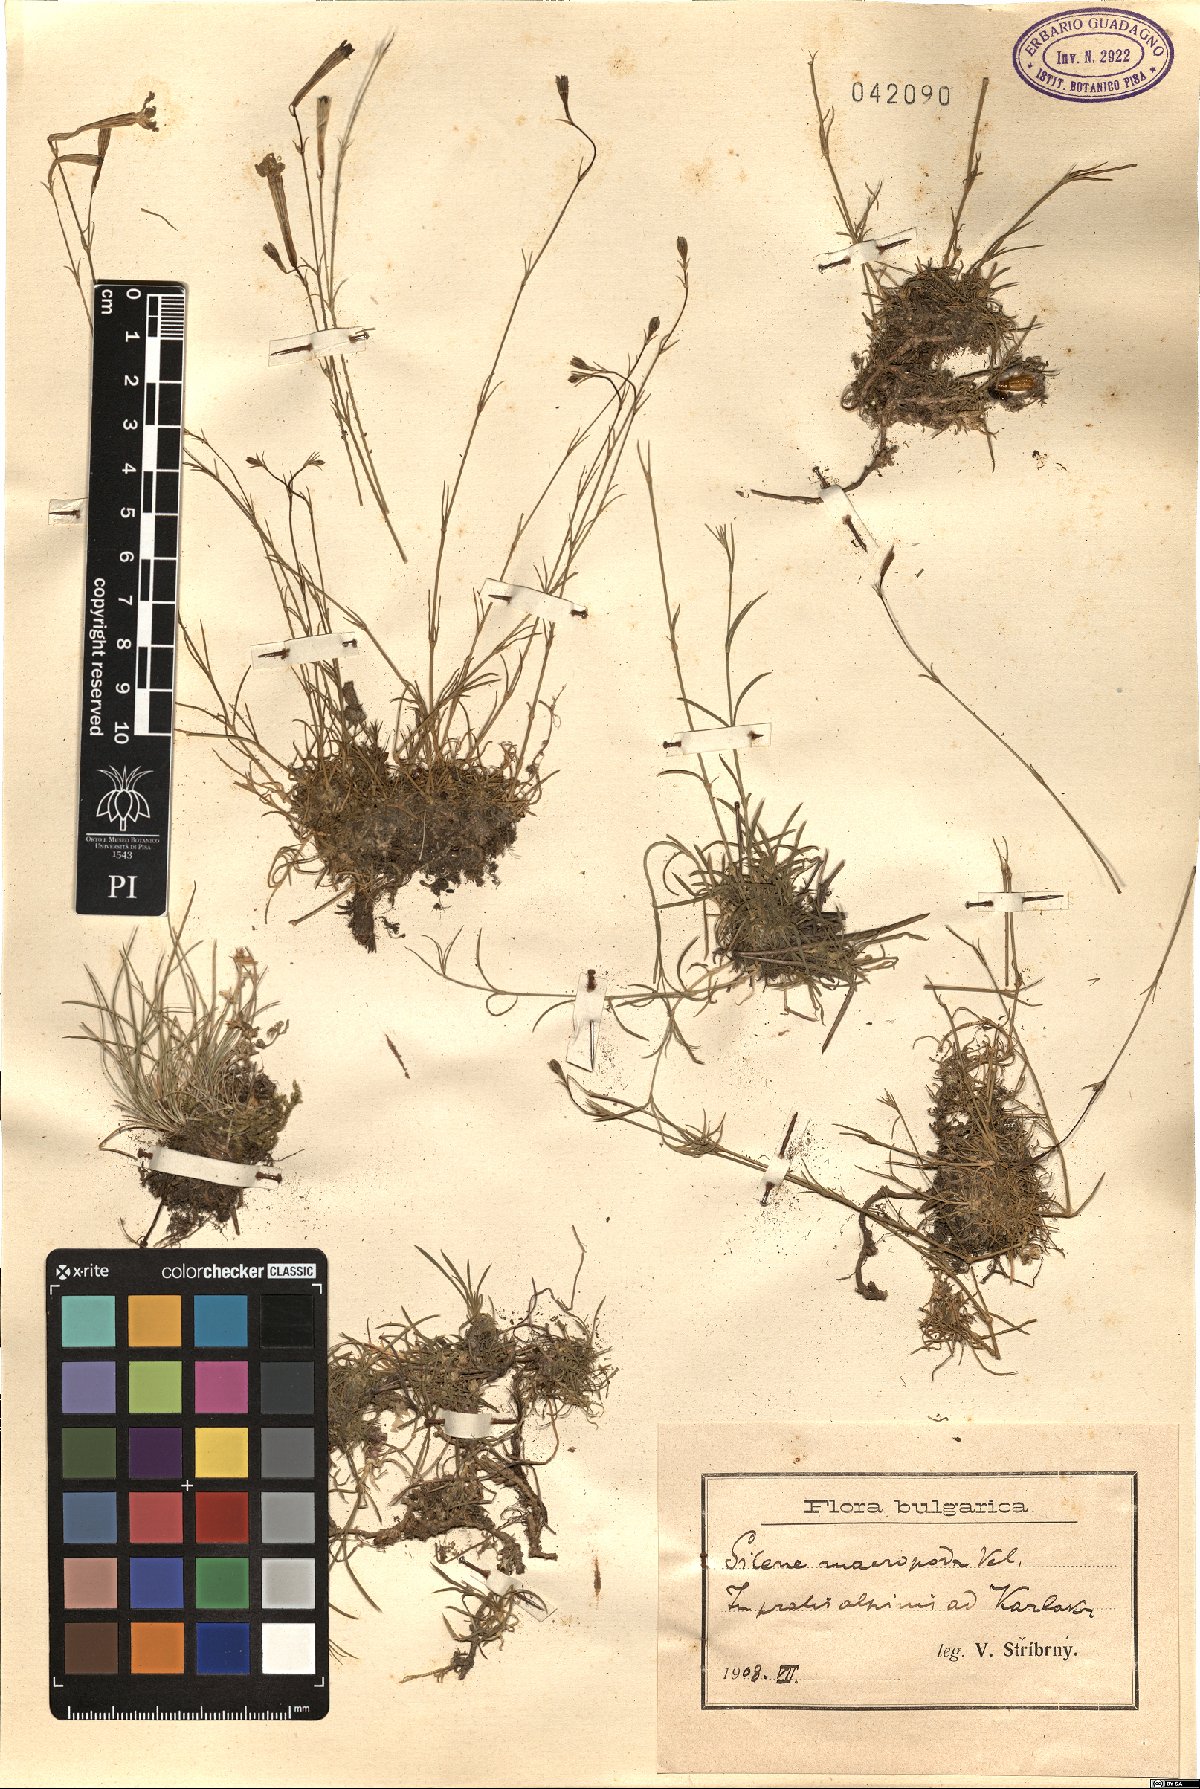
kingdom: Plantae
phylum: Tracheophyta
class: Magnoliopsida
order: Caryophyllales
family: Caryophyllaceae
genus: Silene
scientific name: Silene waldsteinii
